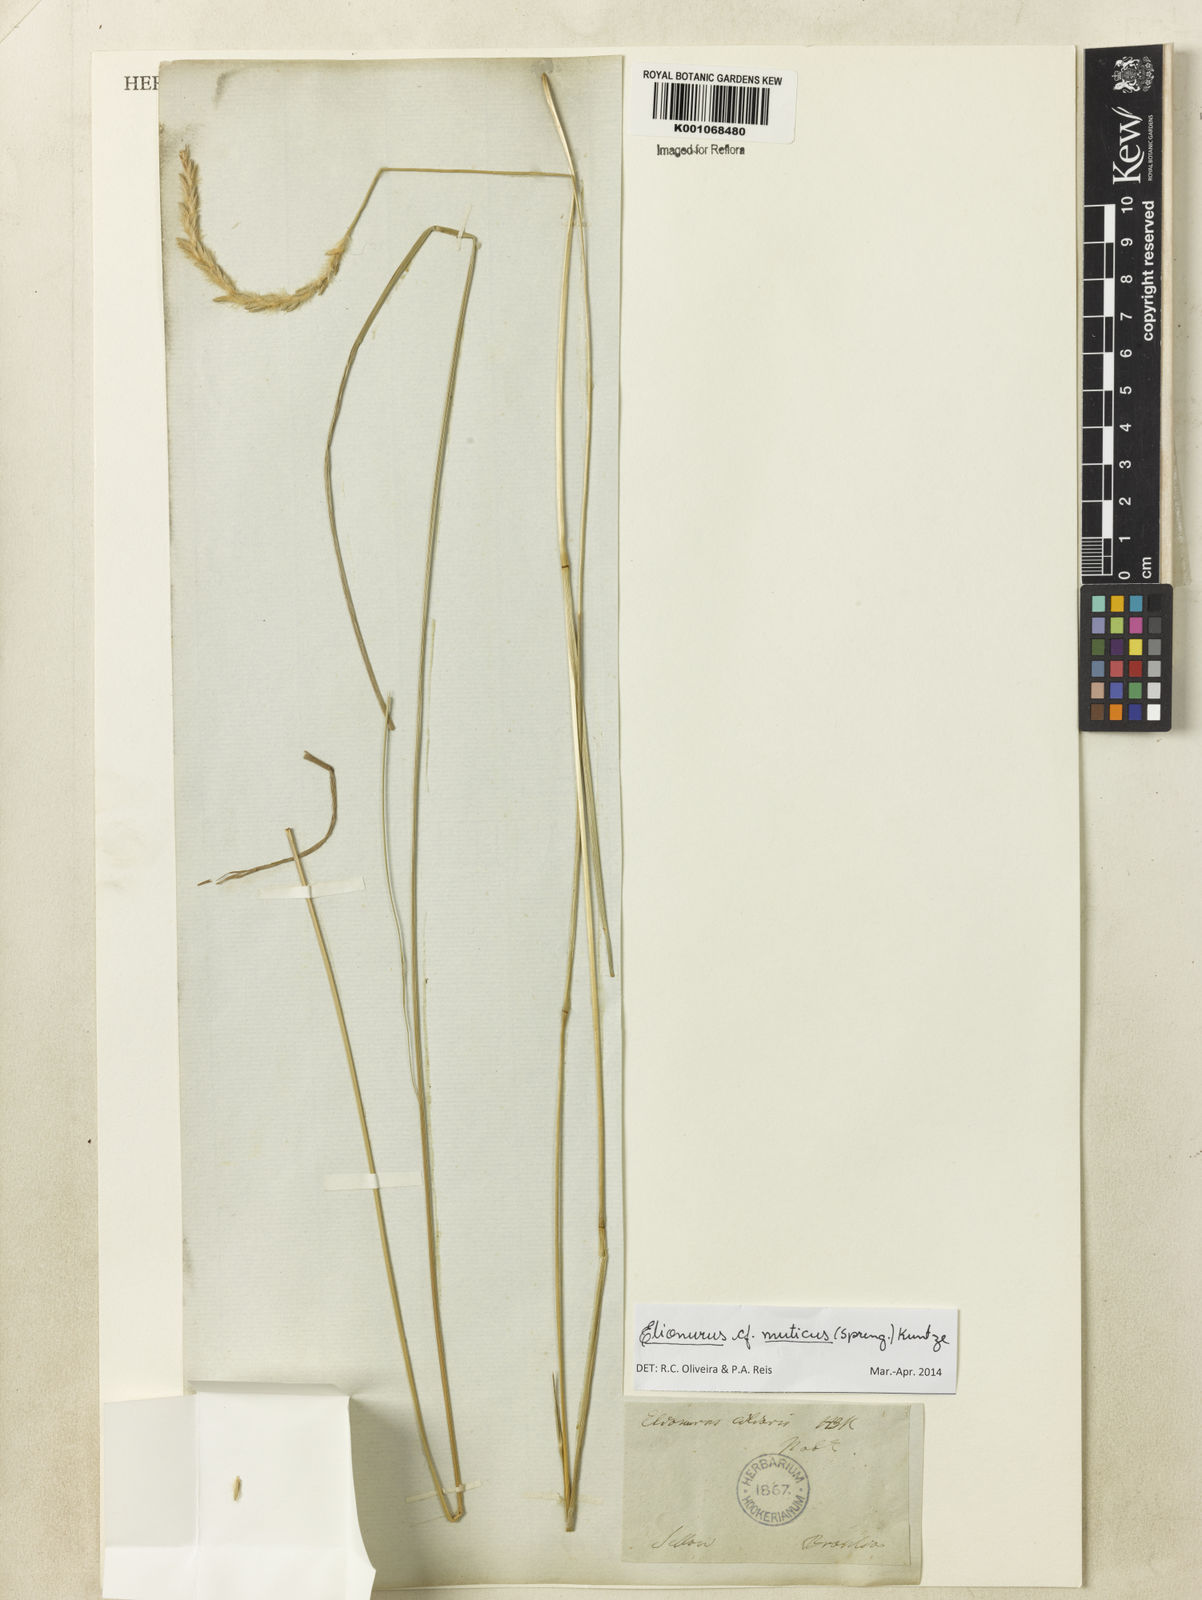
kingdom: Plantae
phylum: Tracheophyta
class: Liliopsida
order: Poales
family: Poaceae
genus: Elionurus
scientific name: Elionurus muticus
